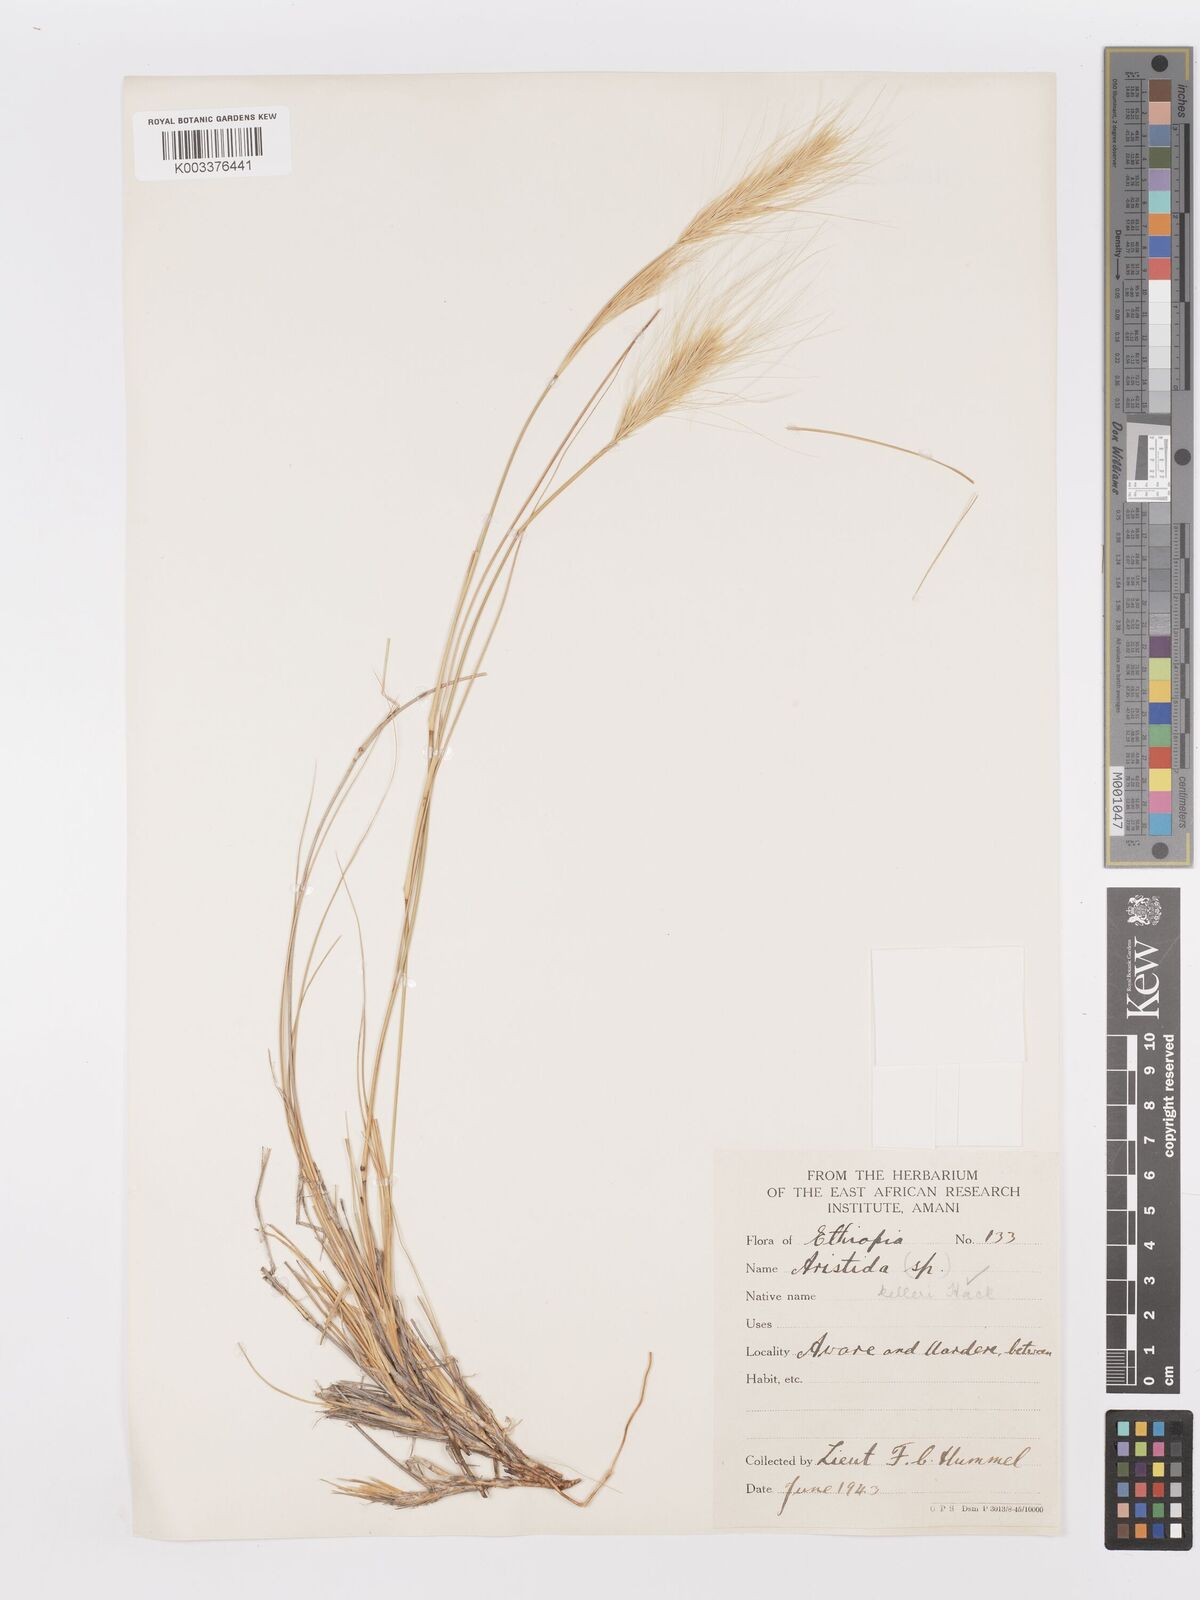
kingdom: Plantae
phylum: Tracheophyta
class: Liliopsida
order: Poales
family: Poaceae
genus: Aristida
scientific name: Aristida kelleri
